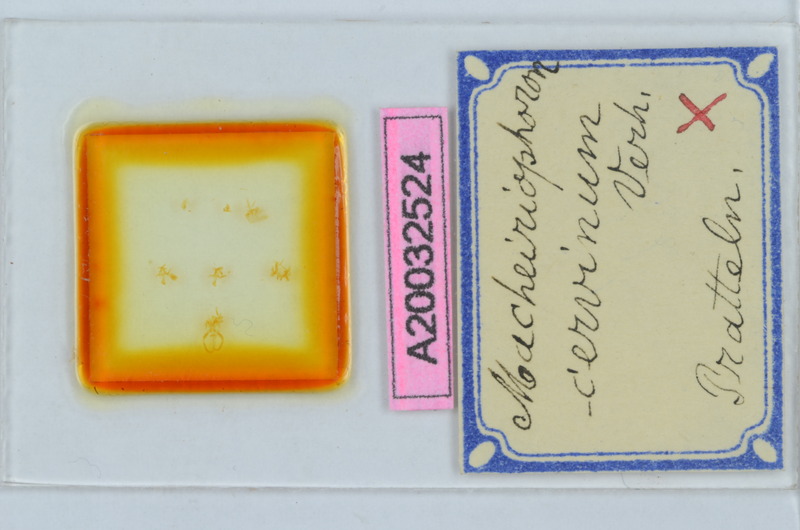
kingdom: Animalia
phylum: Arthropoda
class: Diplopoda
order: Chordeumatida
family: Craspedosomatidae
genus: Rhymogona
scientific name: Rhymogona montivaga
